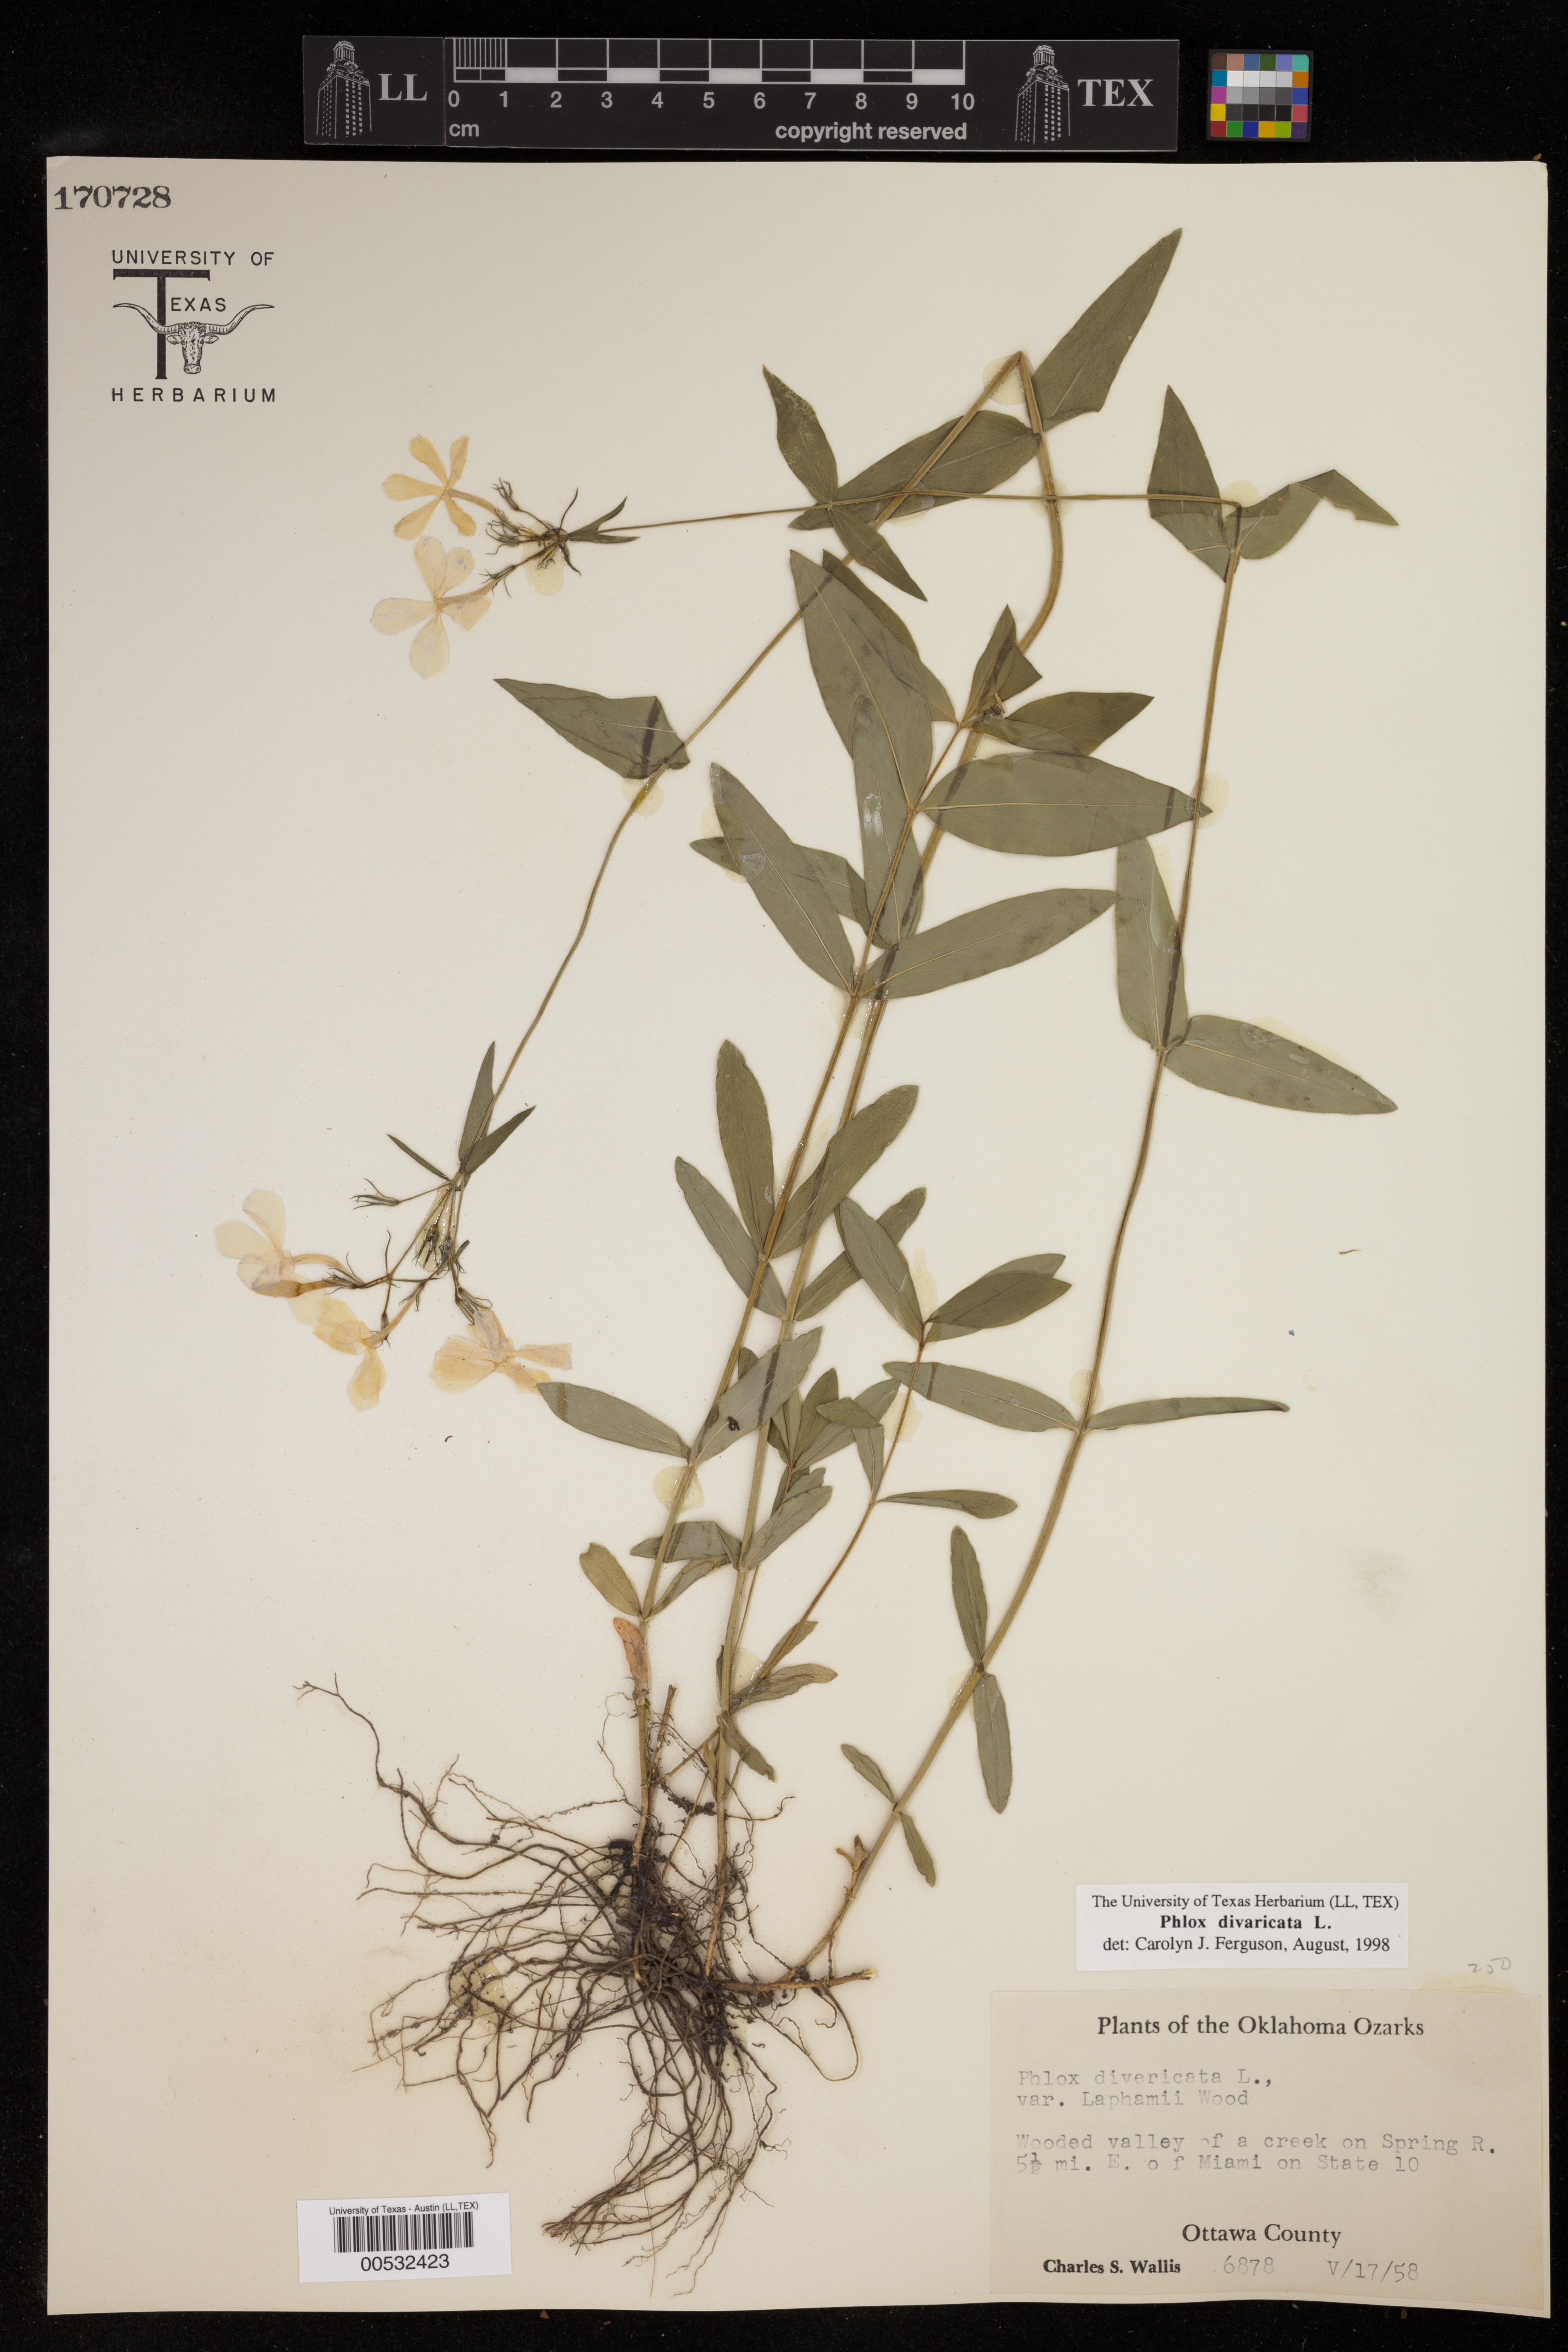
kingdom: Plantae
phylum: Tracheophyta
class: Magnoliopsida
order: Ericales
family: Polemoniaceae
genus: Phlox
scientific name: Phlox divaricata
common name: Blue phlox
